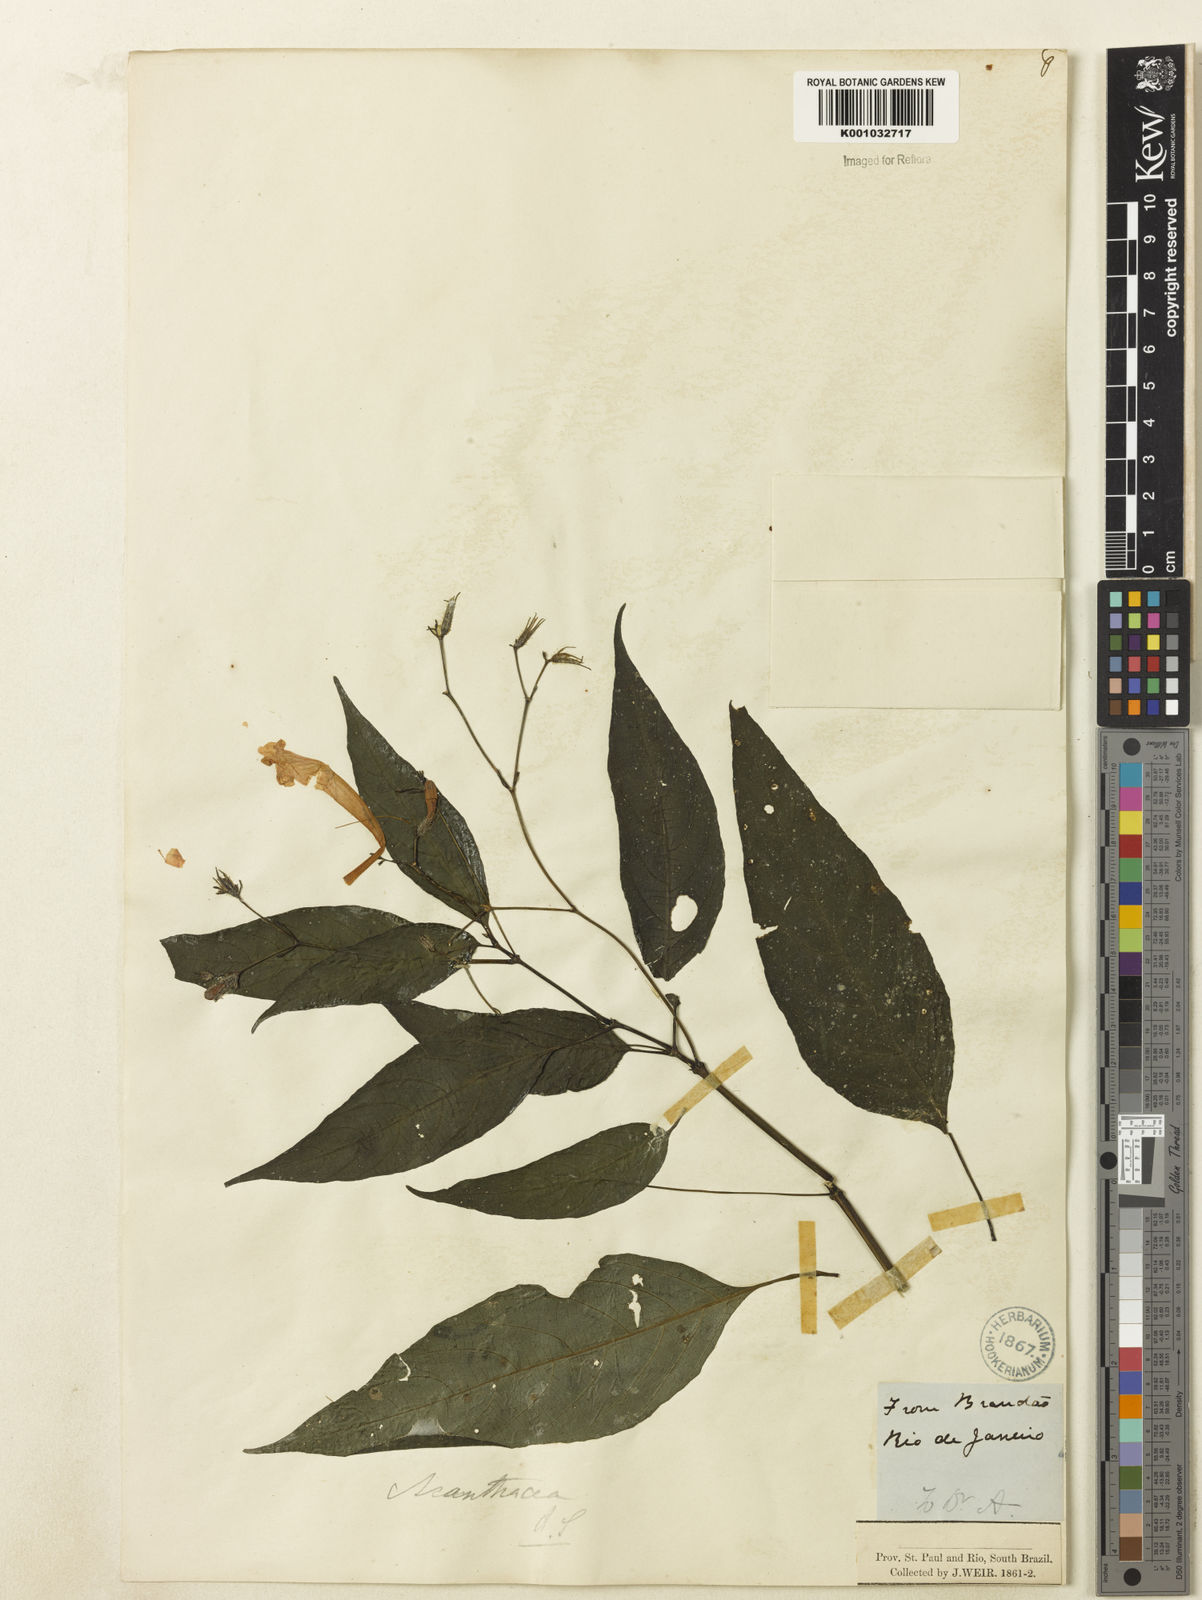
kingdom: Plantae
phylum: Tracheophyta
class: Magnoliopsida
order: Lamiales
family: Acanthaceae
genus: Ruellia
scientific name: Ruellia
